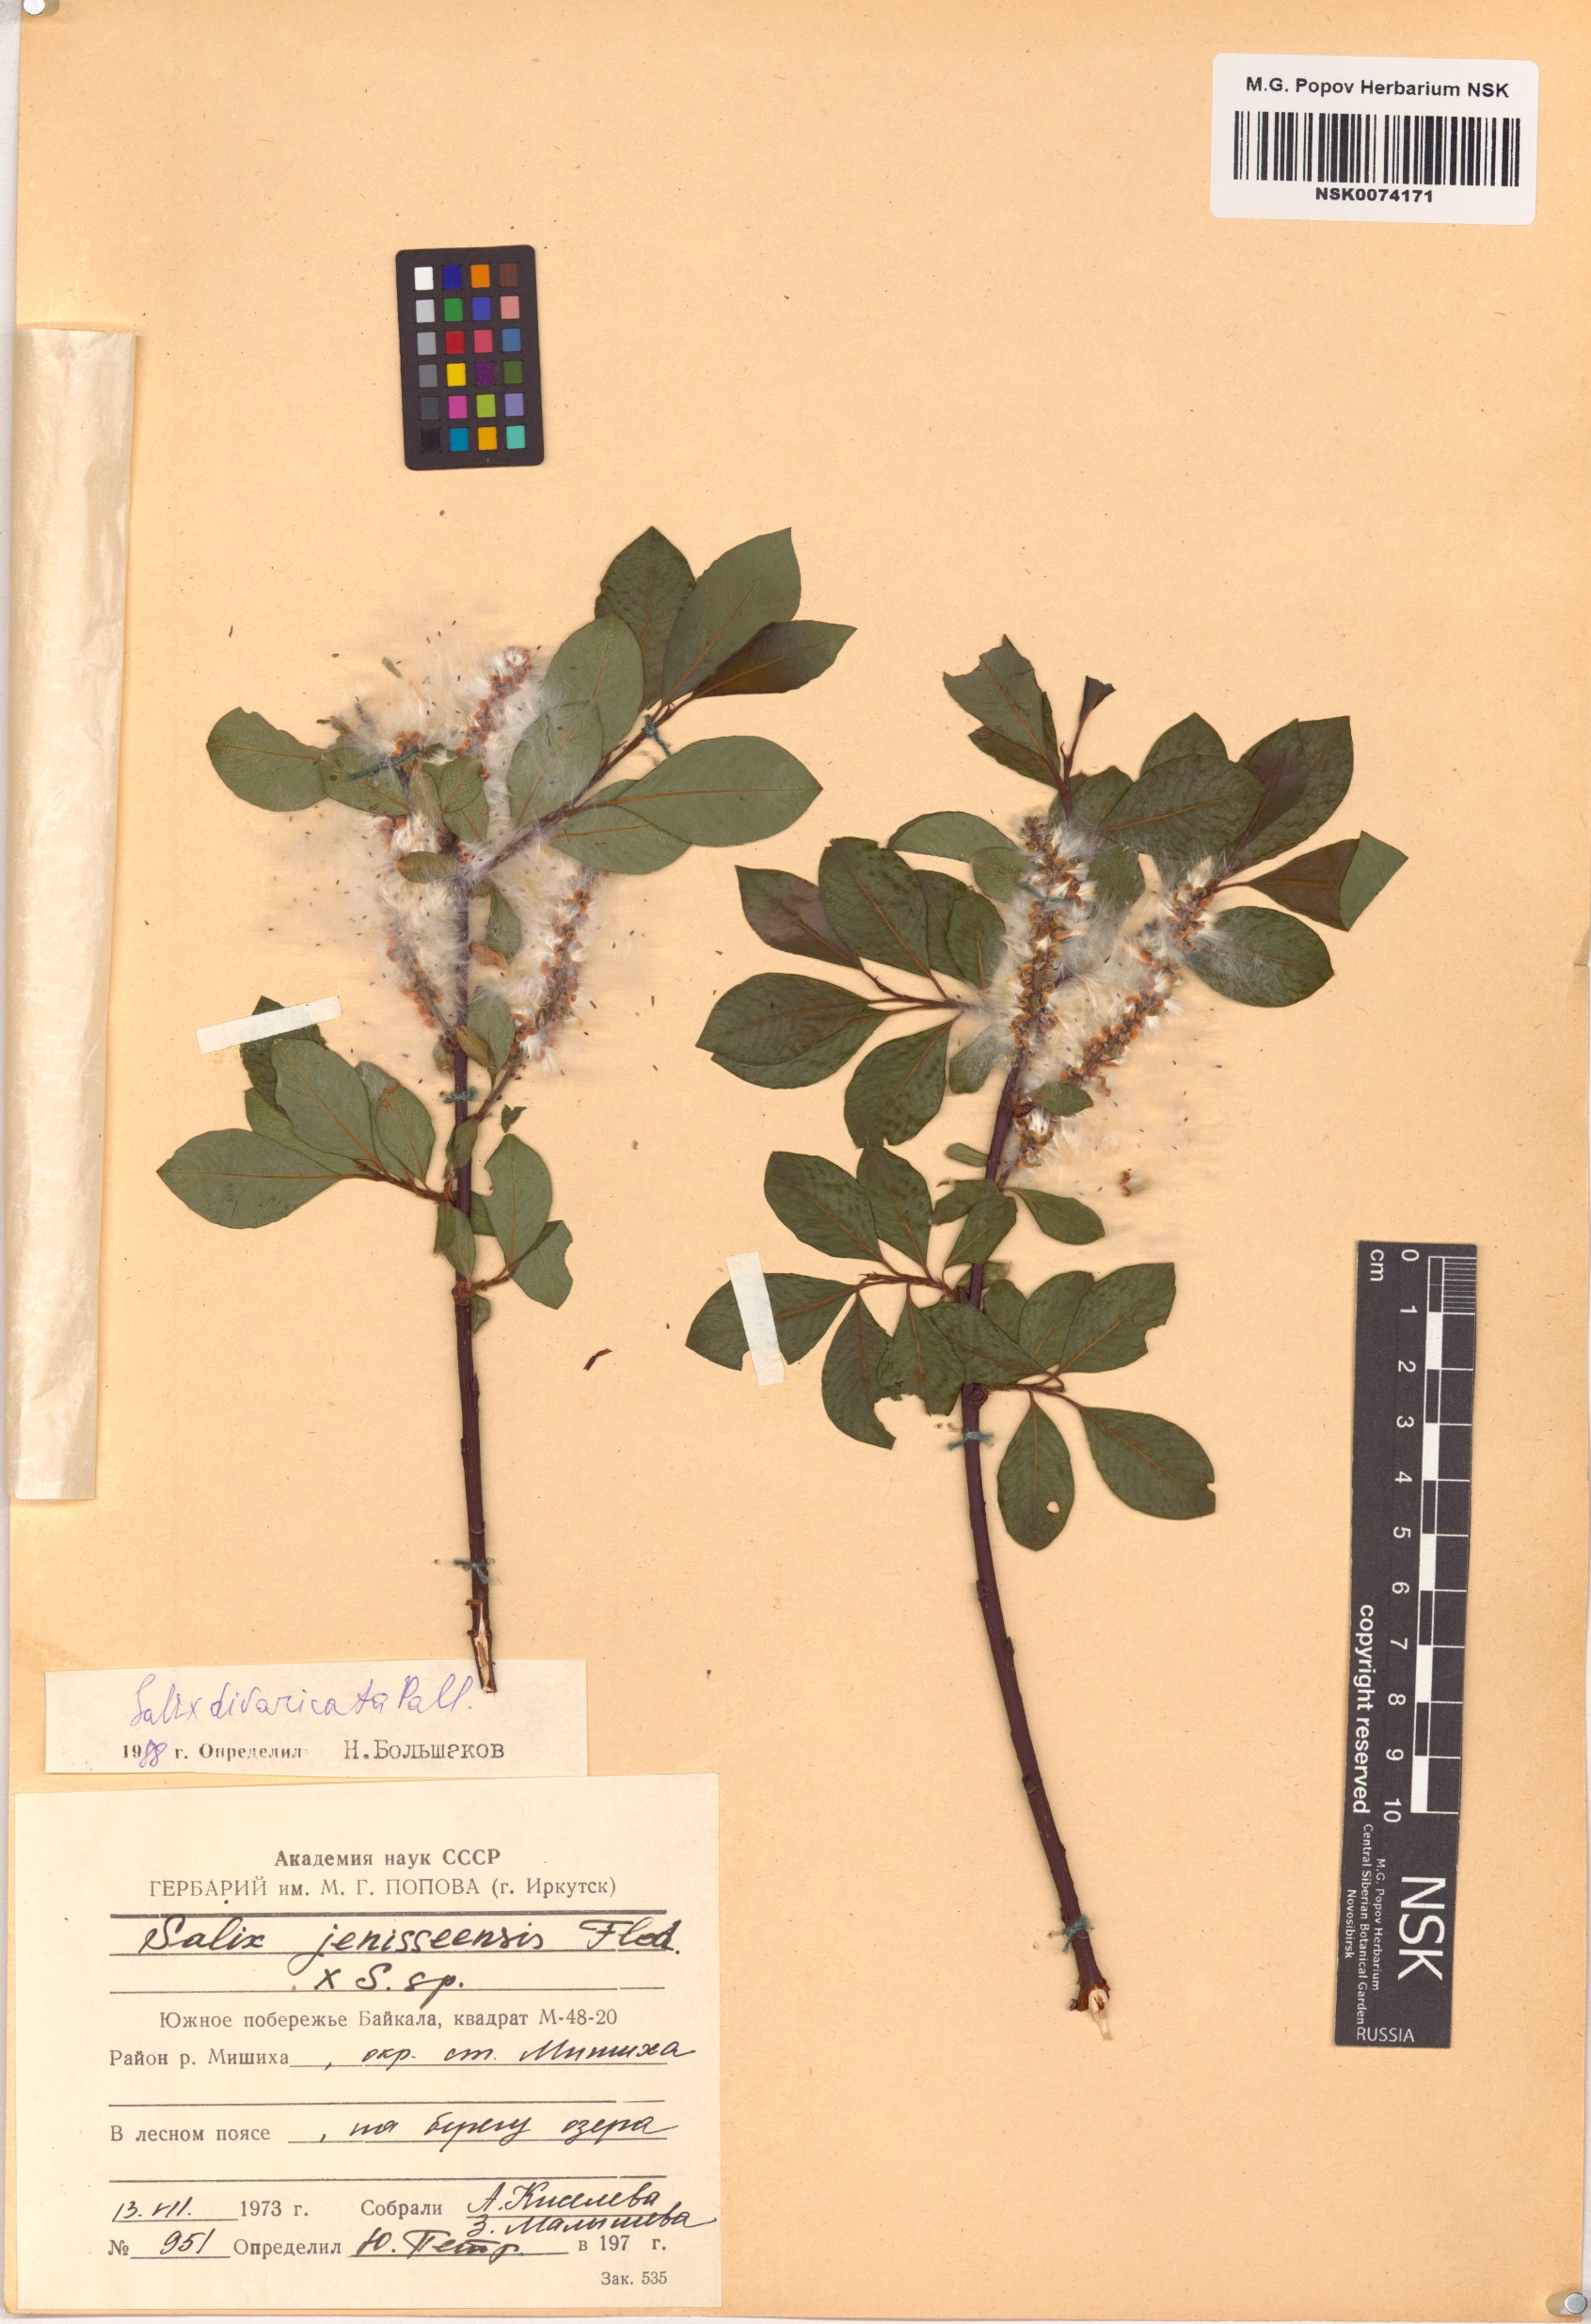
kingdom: Plantae
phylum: Tracheophyta
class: Magnoliopsida
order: Malpighiales
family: Salicaceae
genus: Salix
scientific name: Salix divaricata
